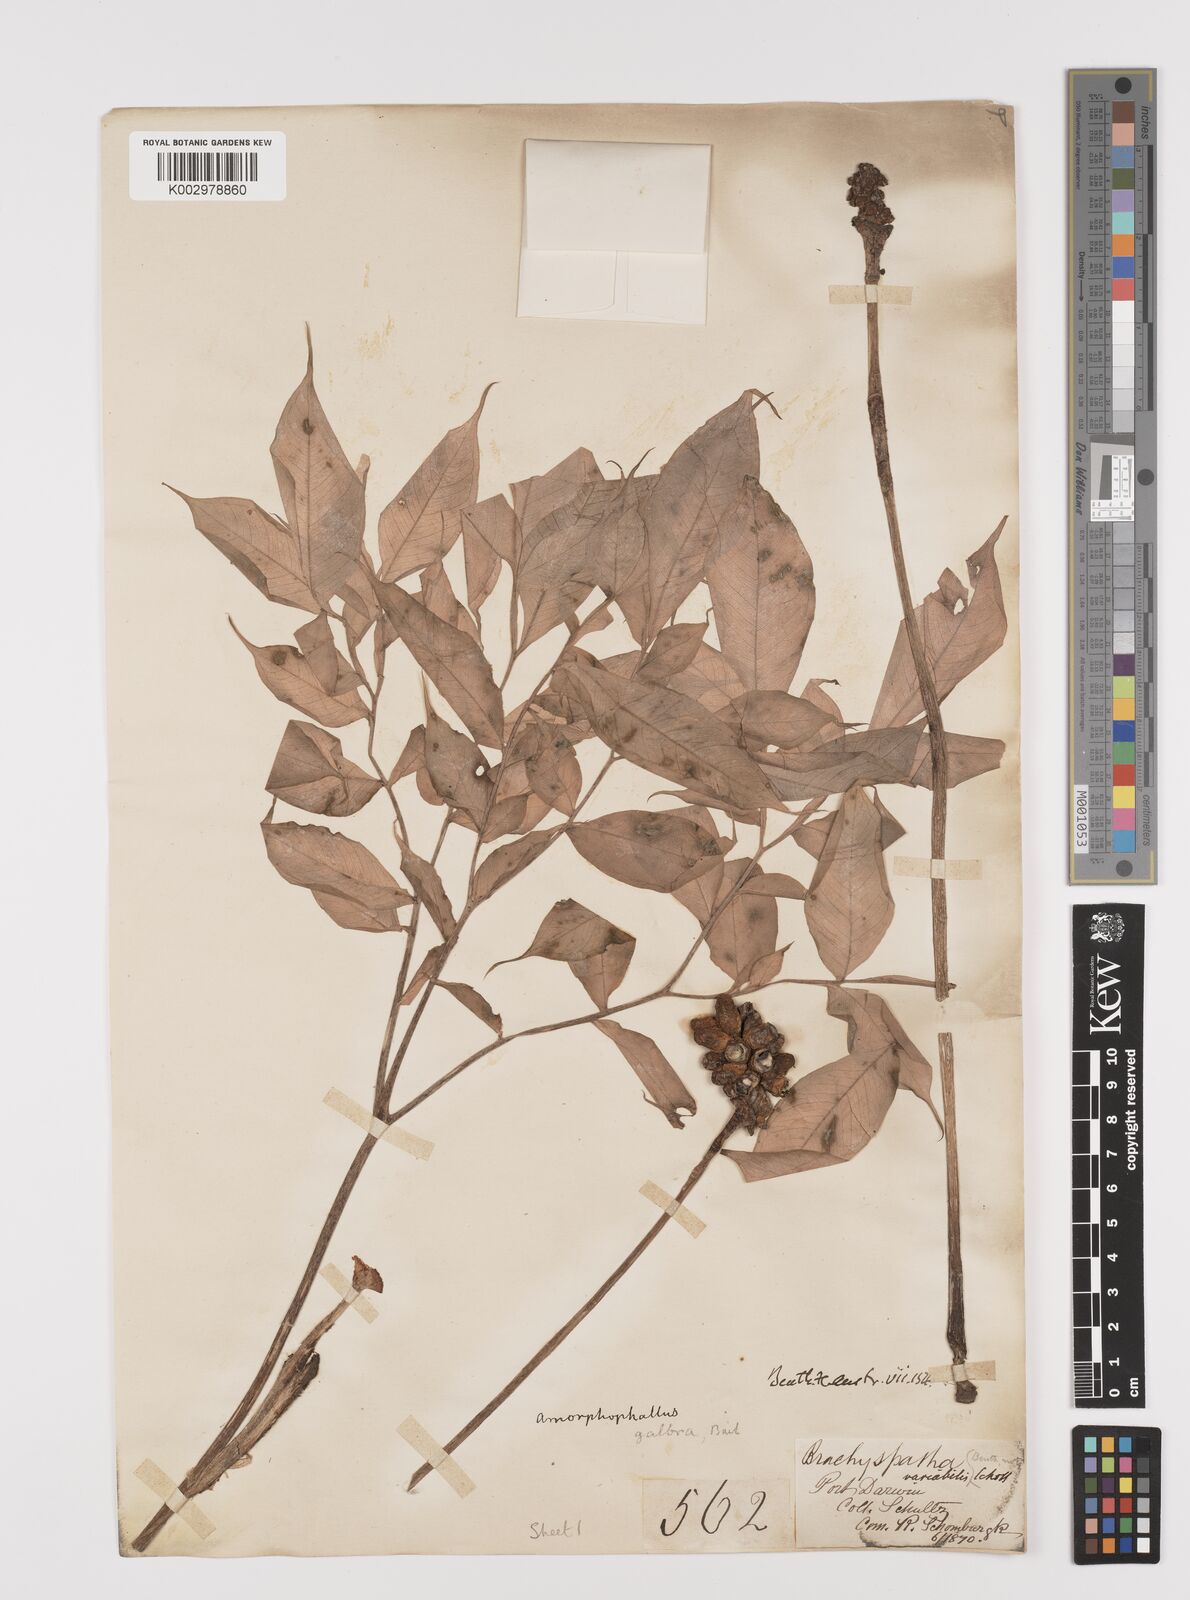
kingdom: Plantae
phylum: Tracheophyta
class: Liliopsida
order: Alismatales
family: Araceae
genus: Amorphophallus
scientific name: Amorphophallus galbra
